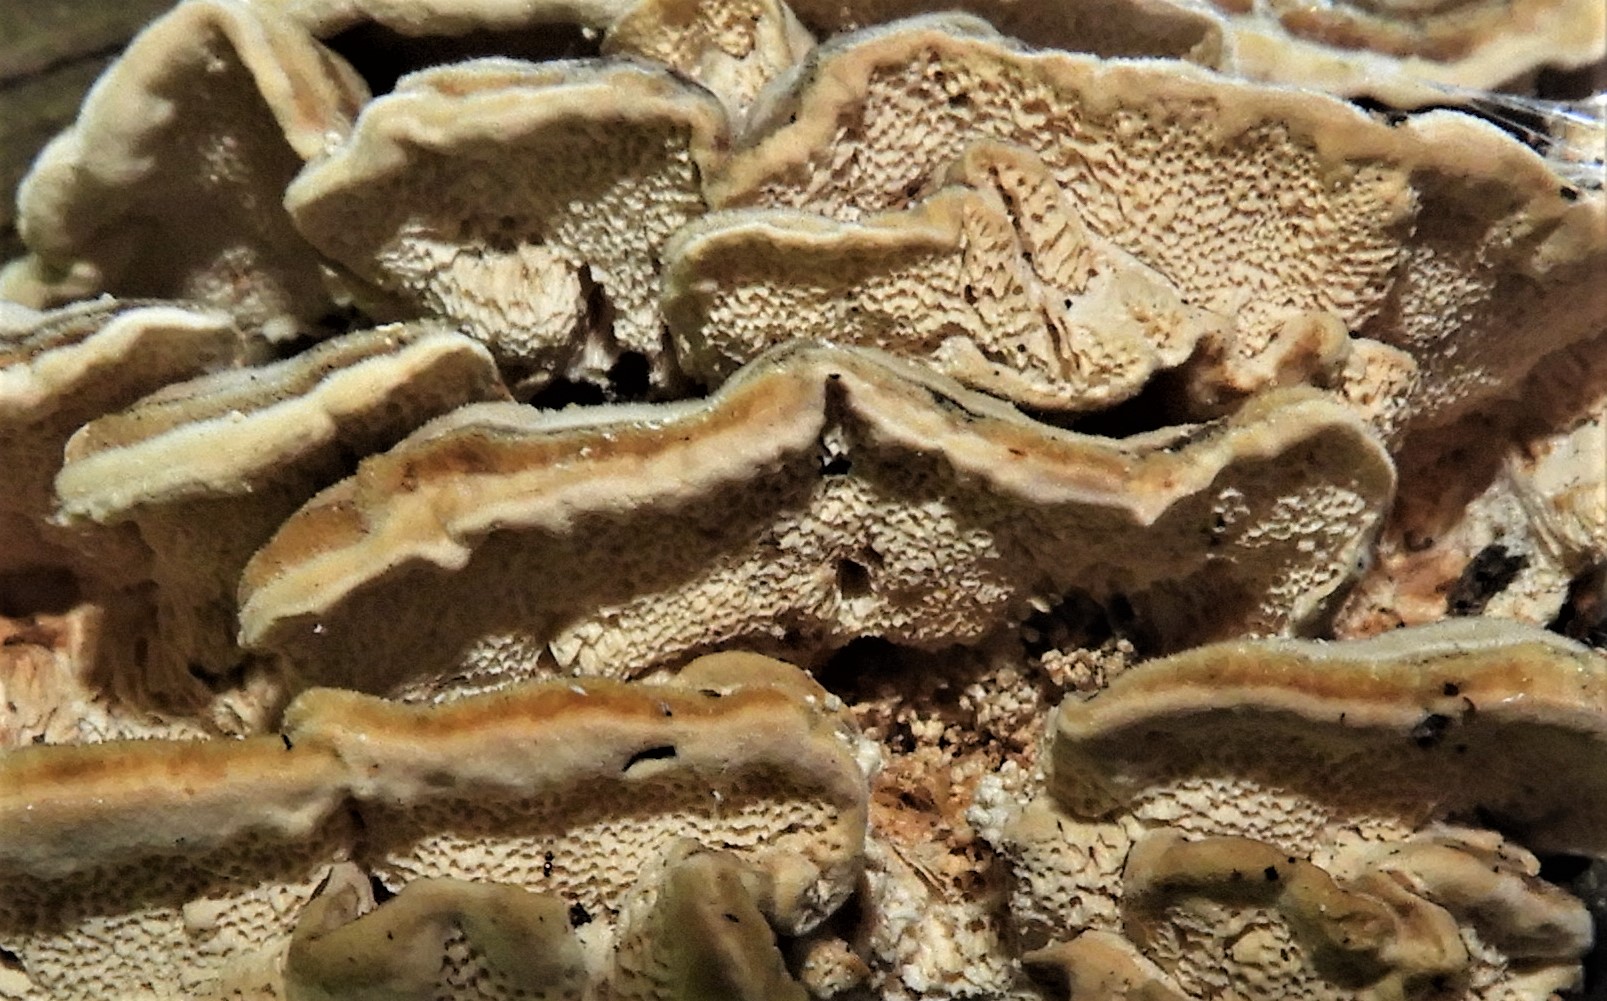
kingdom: Fungi
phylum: Basidiomycota
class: Agaricomycetes
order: Polyporales
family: Polyporaceae
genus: Trametes
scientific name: Trametes versicolor
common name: broget læderporesvamp
